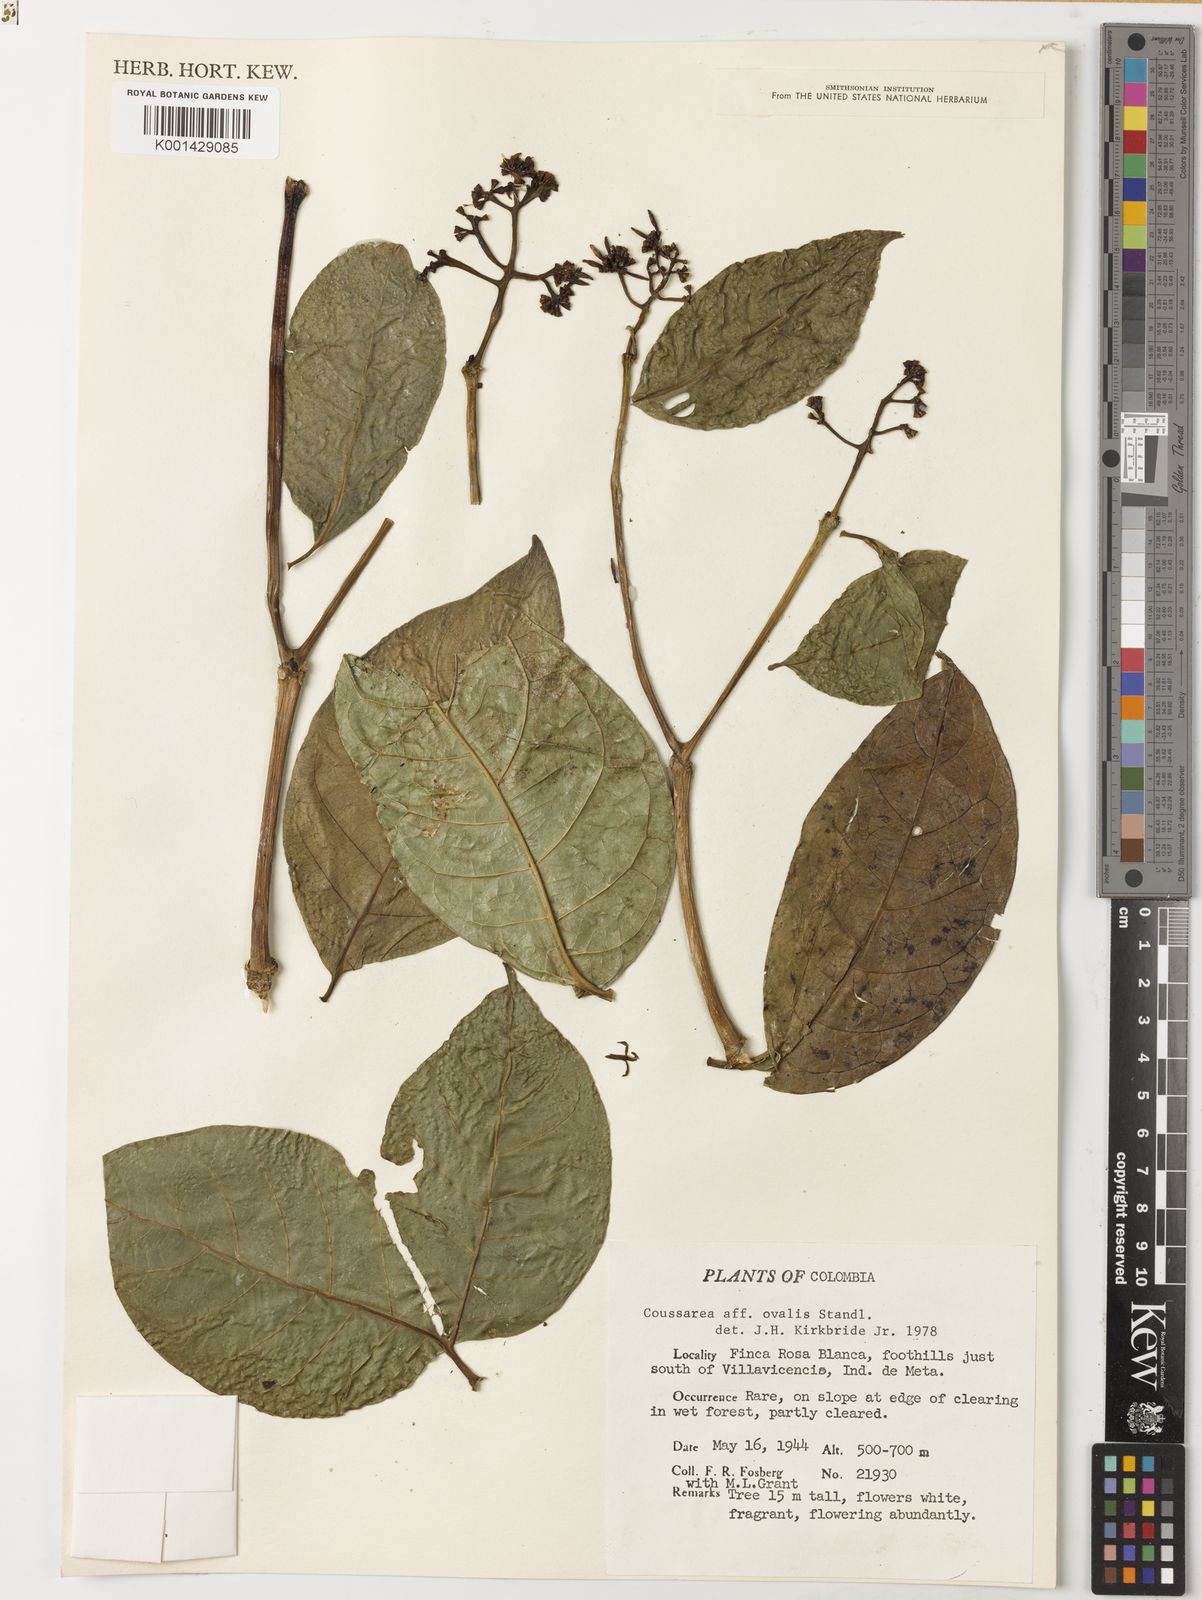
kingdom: Plantae
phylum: Tracheophyta
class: Magnoliopsida
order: Gentianales
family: Rubiaceae
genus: Coussarea
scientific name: Coussarea ovalis
